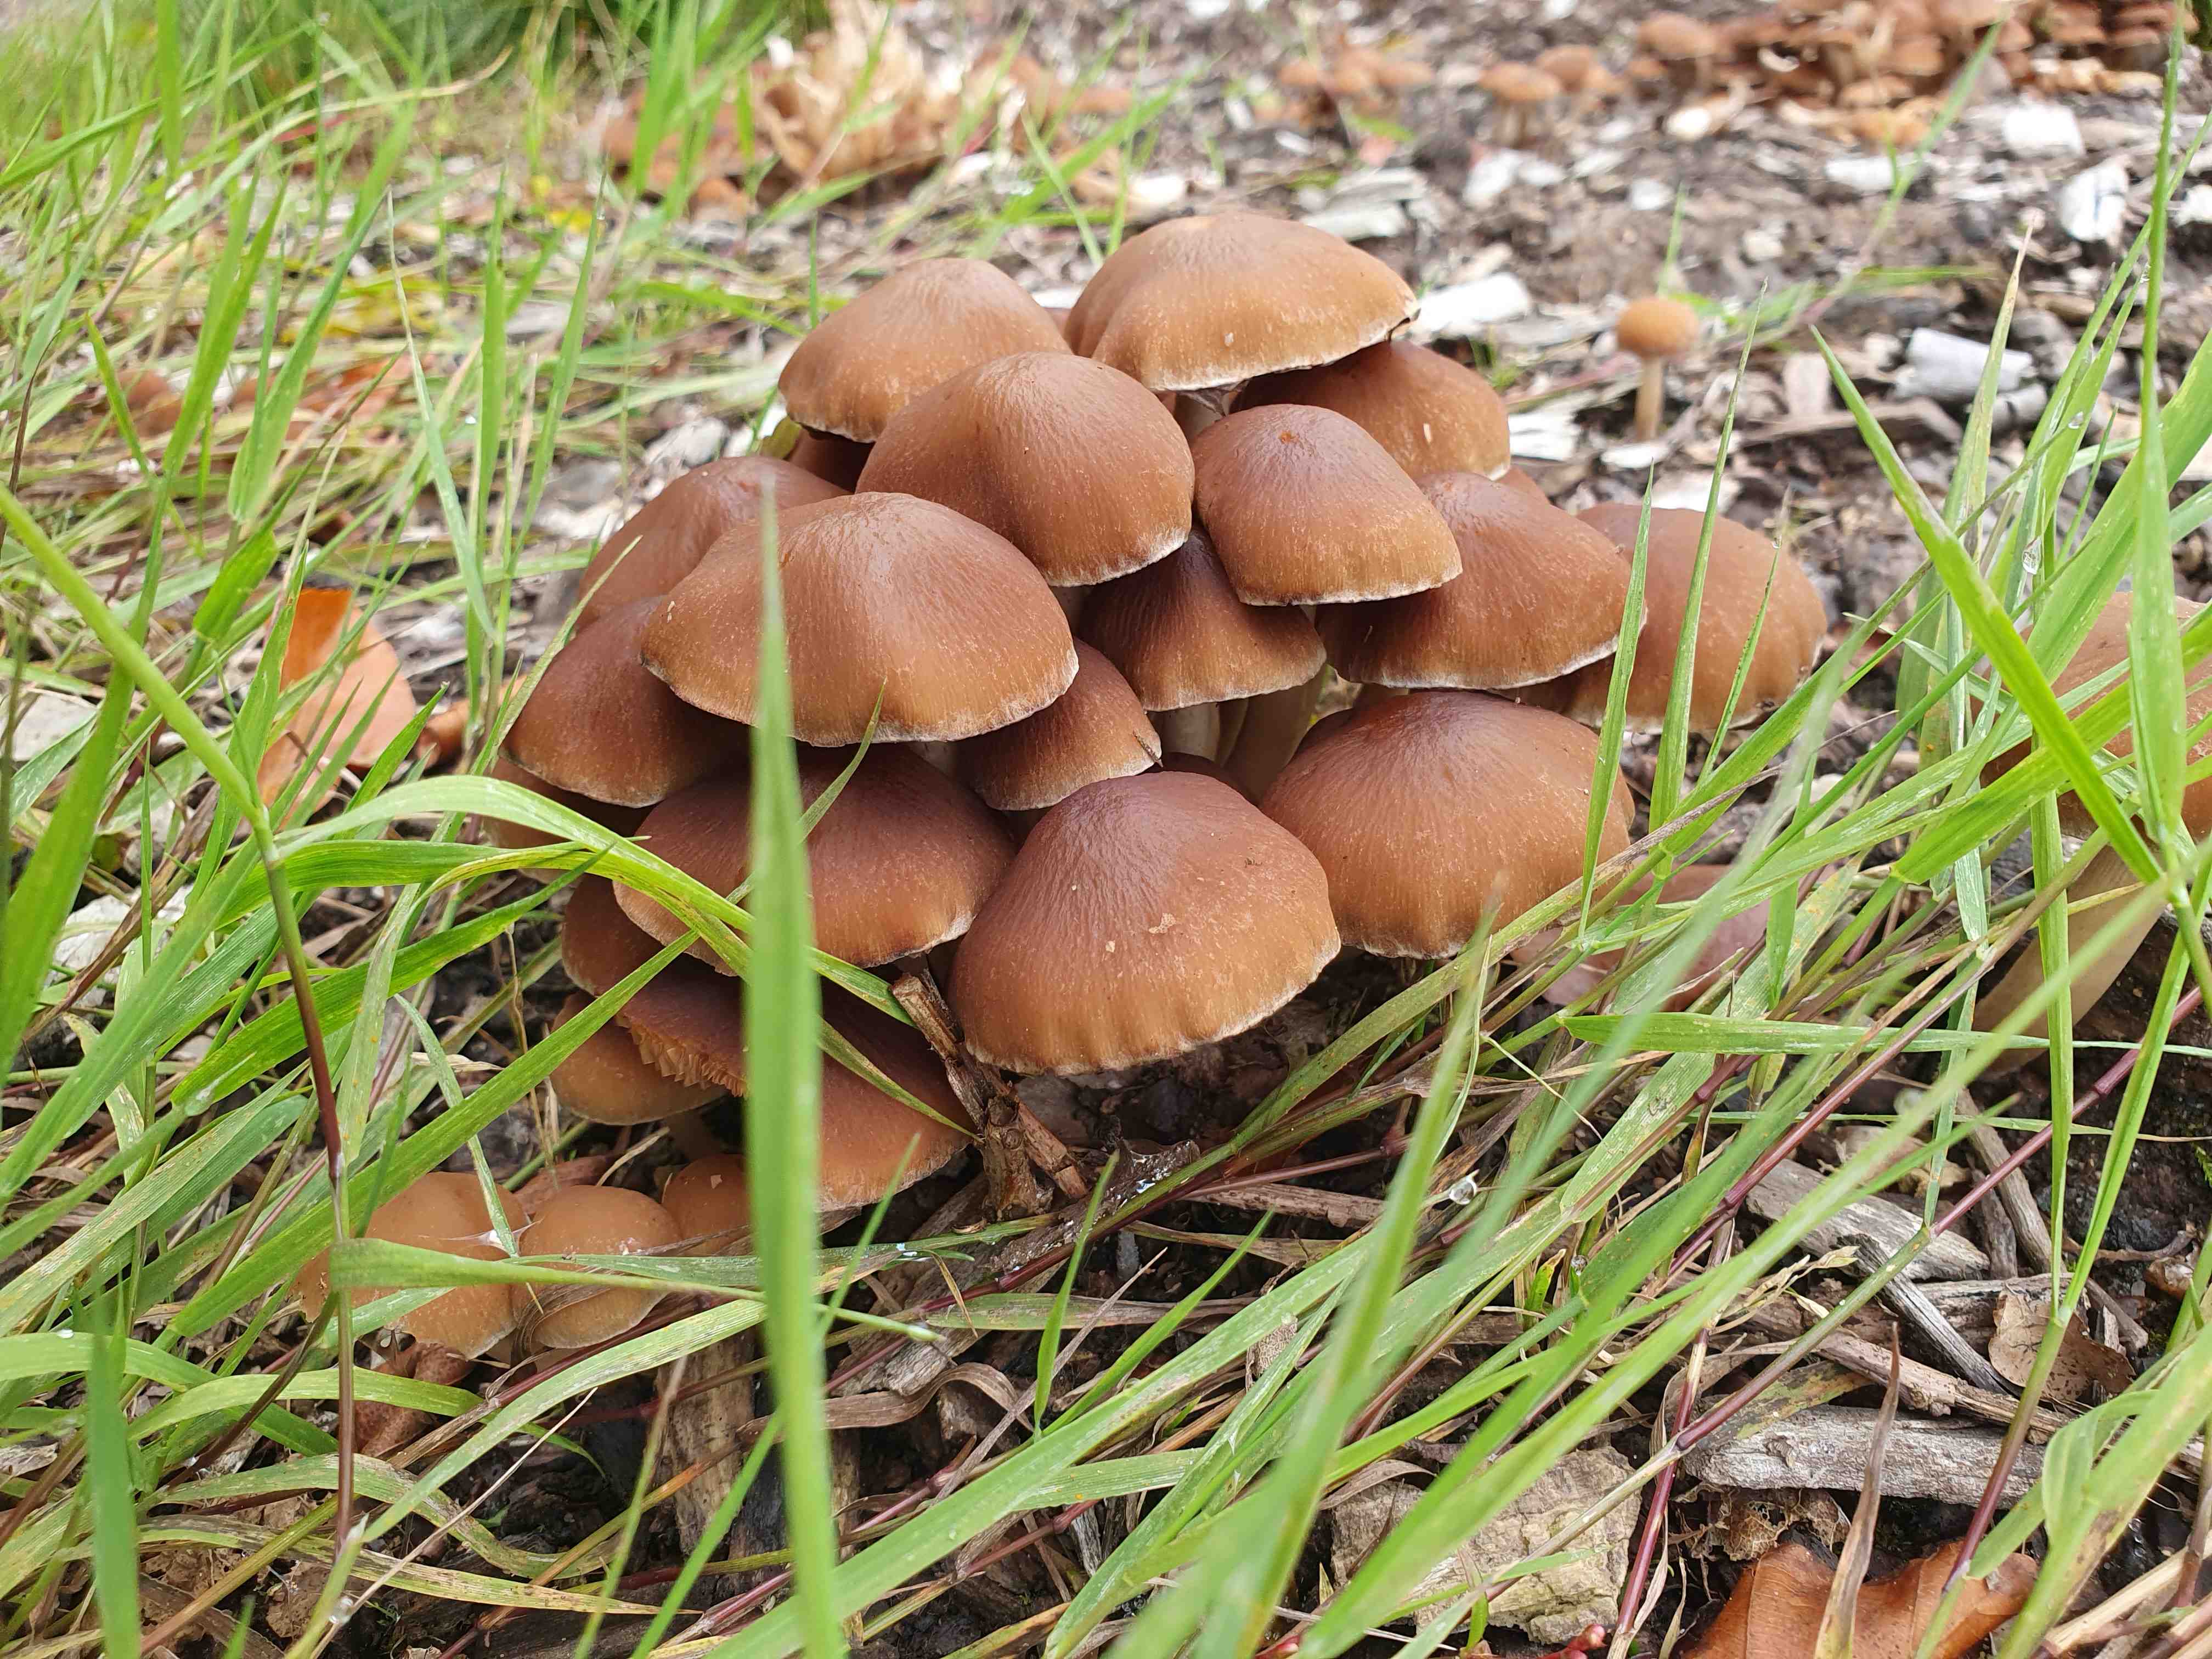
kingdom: Fungi
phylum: Basidiomycota
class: Agaricomycetes
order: Agaricales
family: Psathyrellaceae
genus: Psathyrella
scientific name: Psathyrella piluliformis
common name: lysstokket mørkhat
